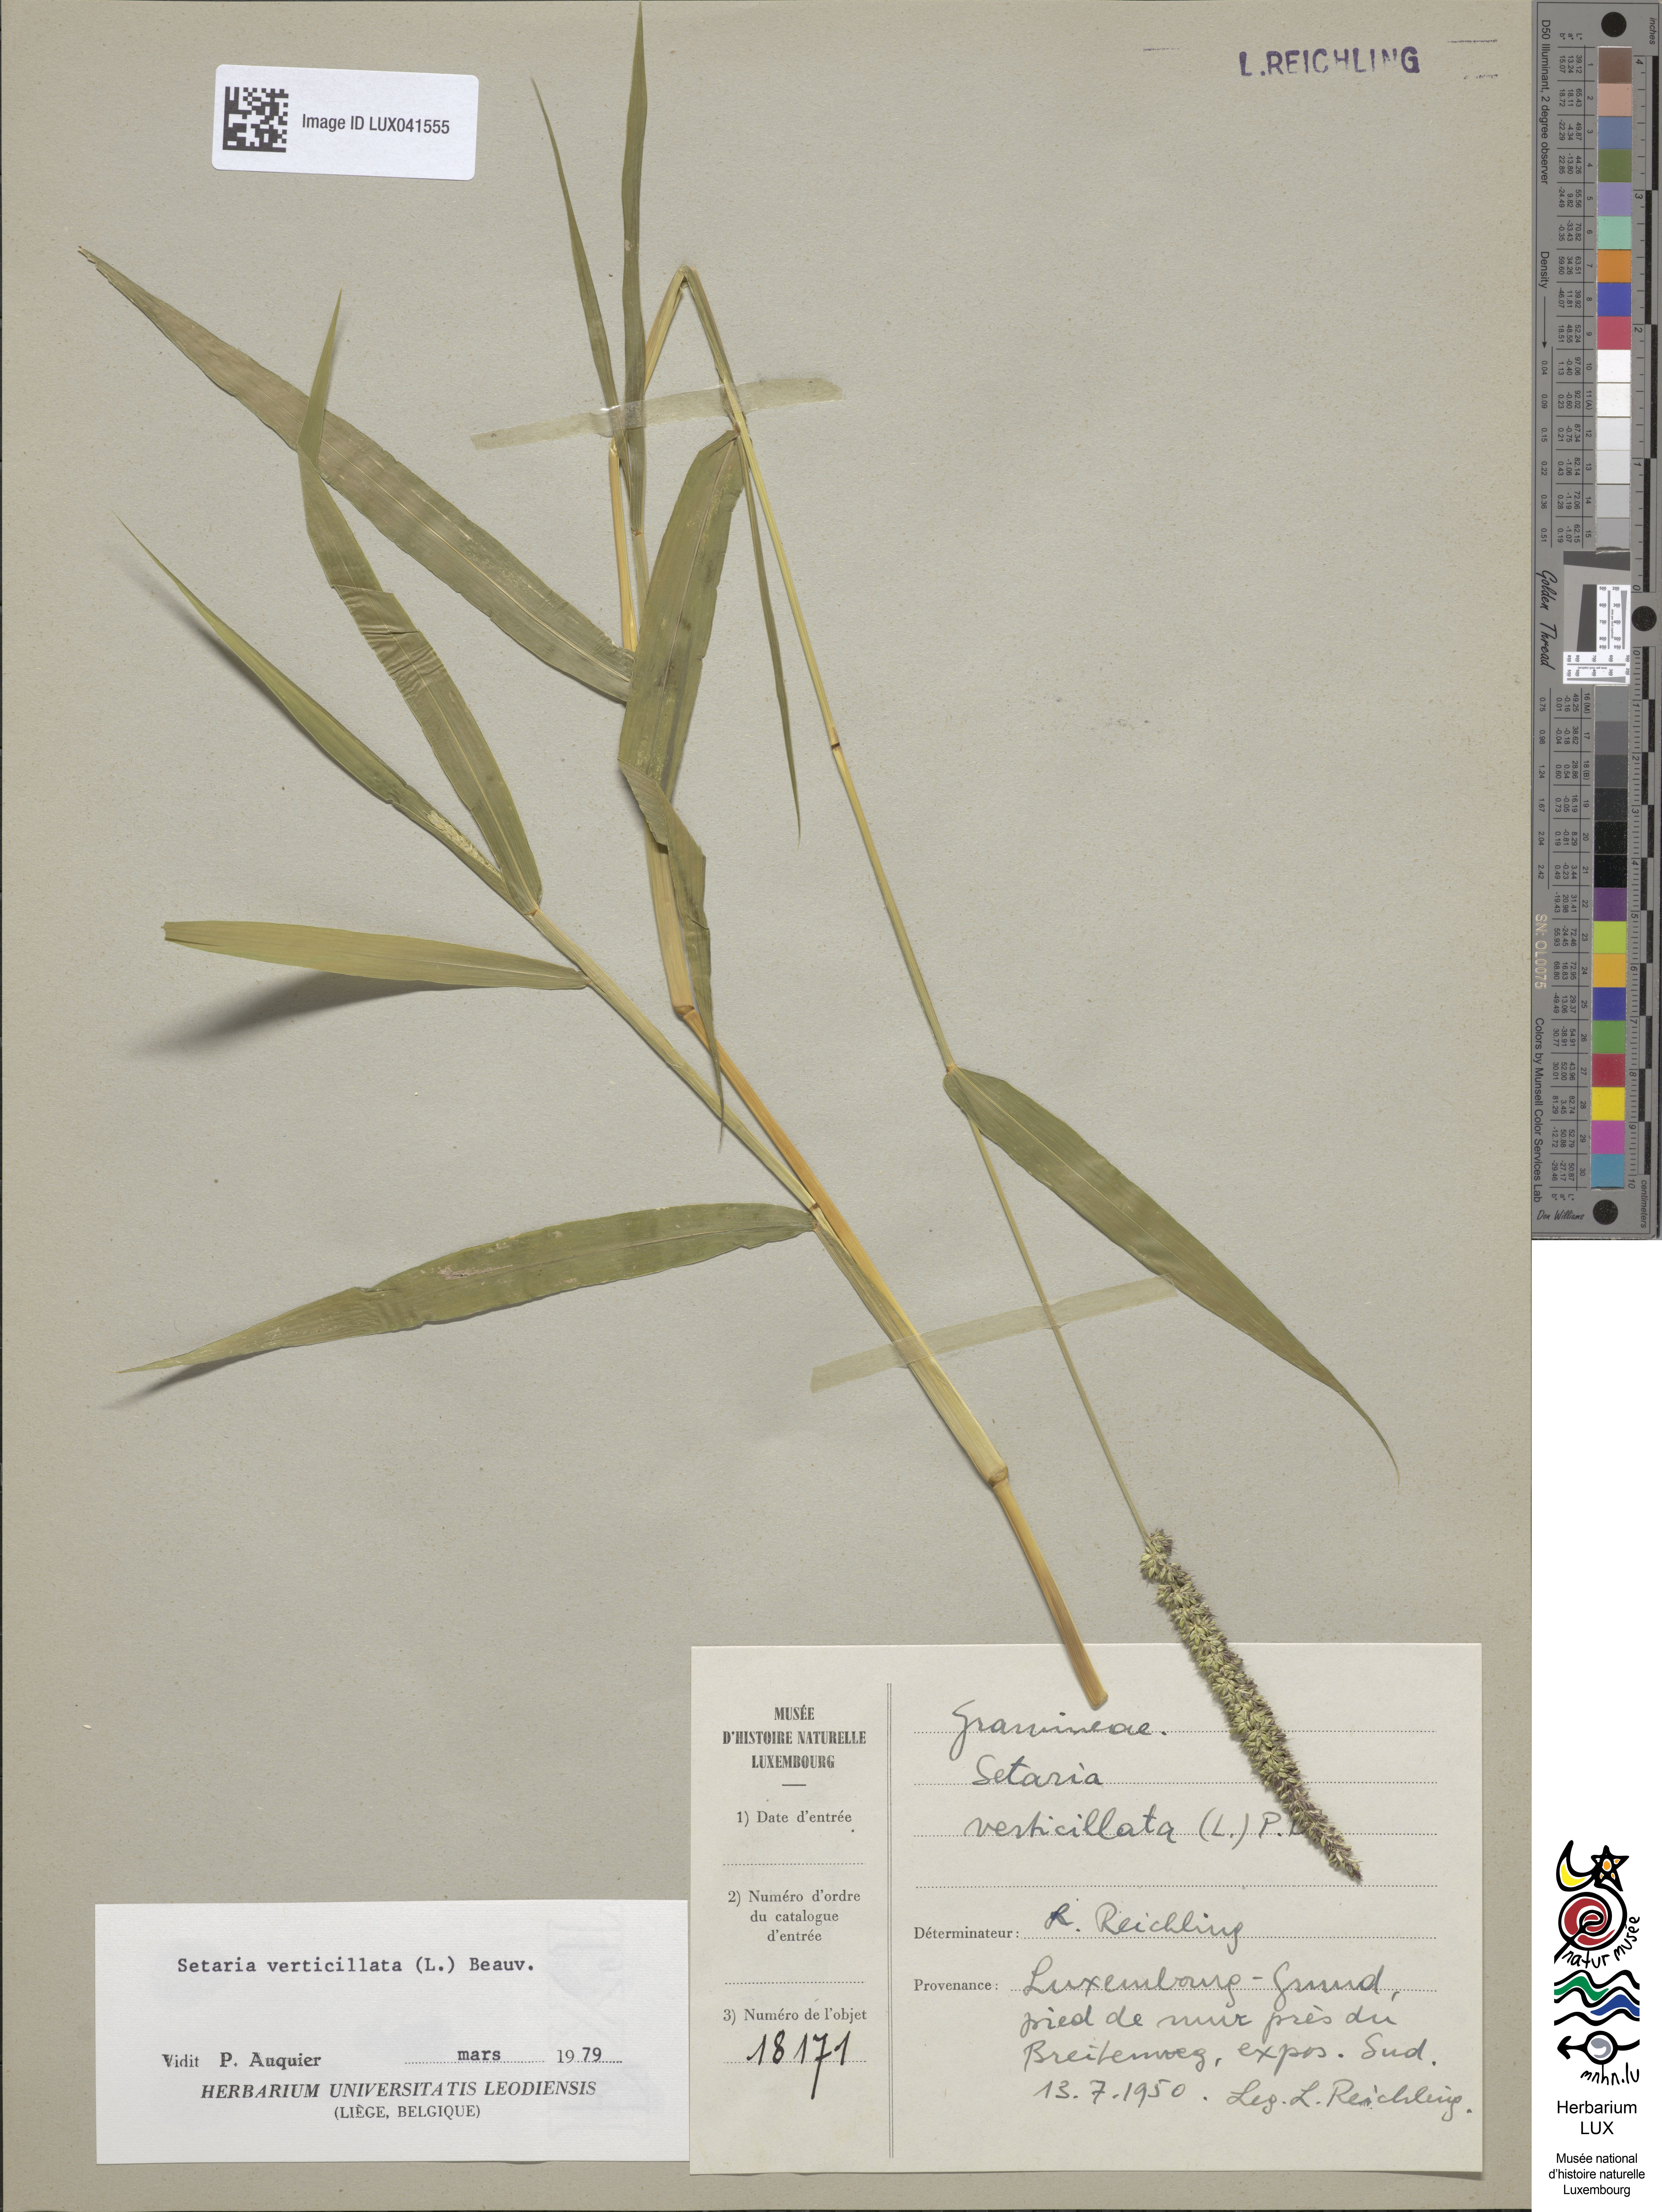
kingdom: Plantae
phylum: Tracheophyta
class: Liliopsida
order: Poales
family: Poaceae
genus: Setaria
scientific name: Setaria verticillata
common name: Hooked bristlegrass
